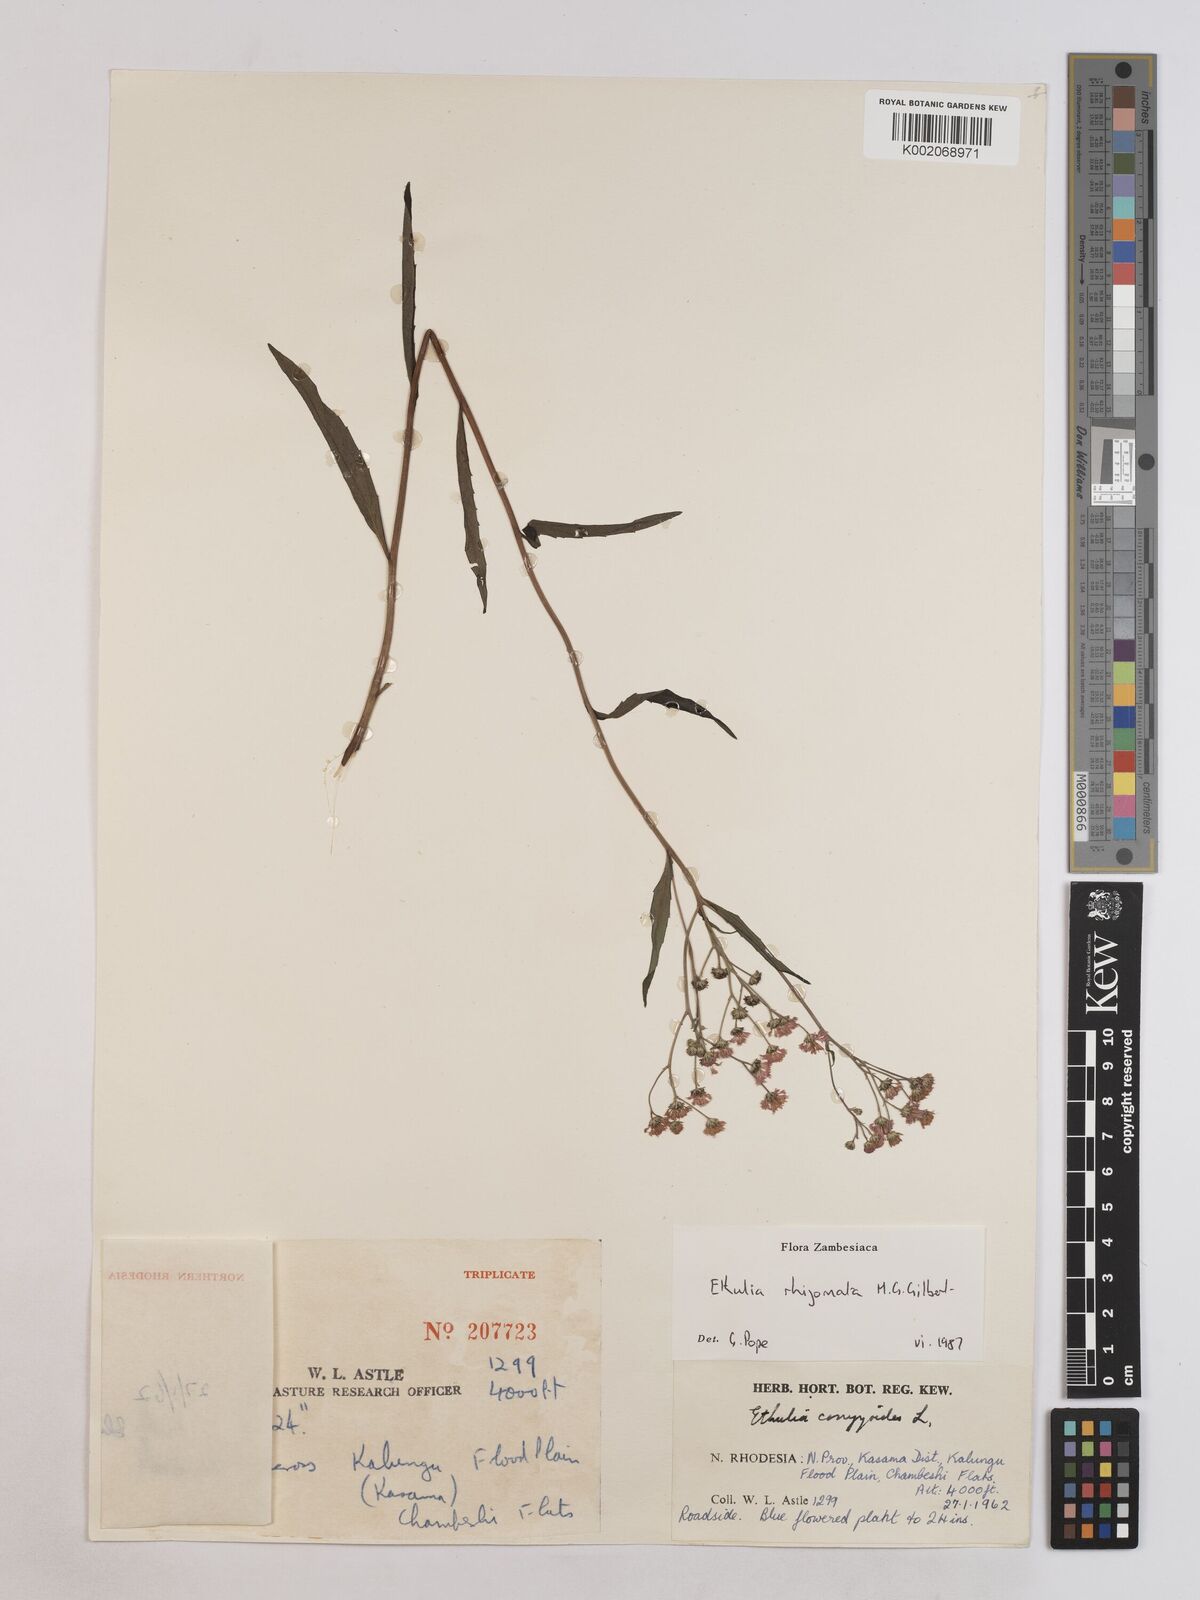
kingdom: Plantae
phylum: Tracheophyta
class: Magnoliopsida
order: Asterales
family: Asteraceae
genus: Ethulia
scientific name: Ethulia rhizomata
